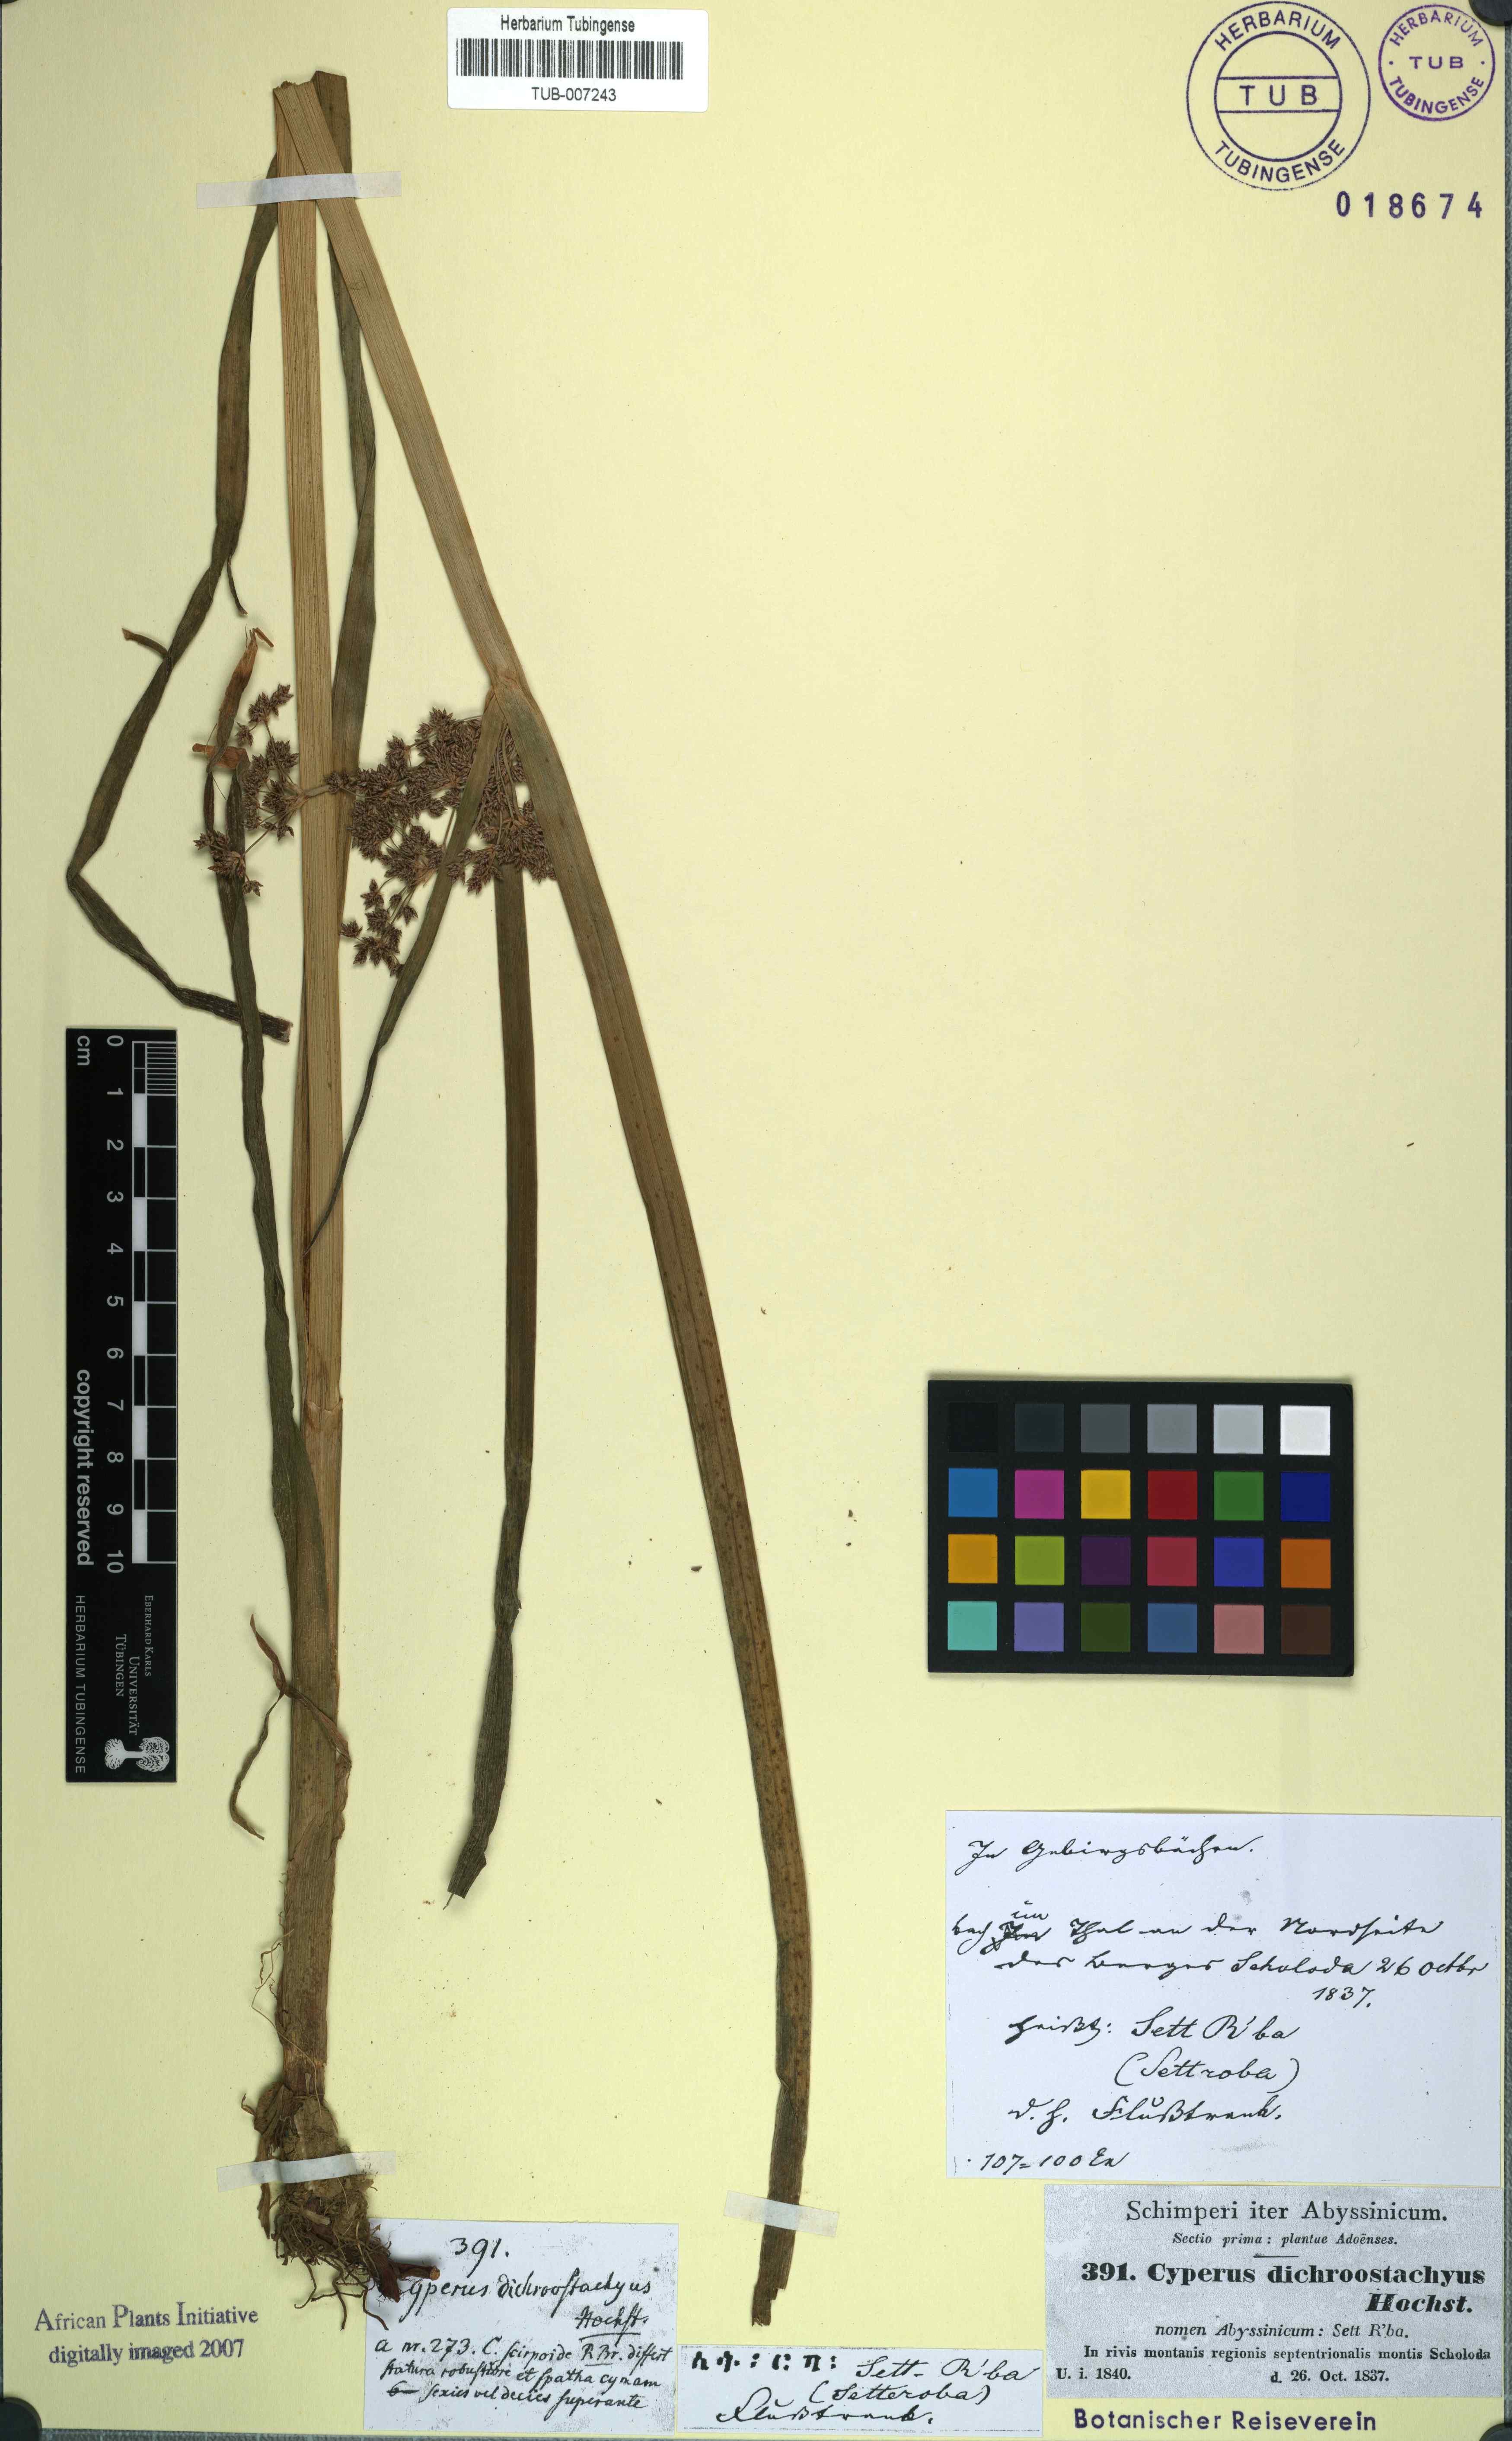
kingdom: Plantae
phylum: Tracheophyta
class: Liliopsida
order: Poales
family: Cyperaceae
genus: Cyperus
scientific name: Cyperus dichrostachyus
